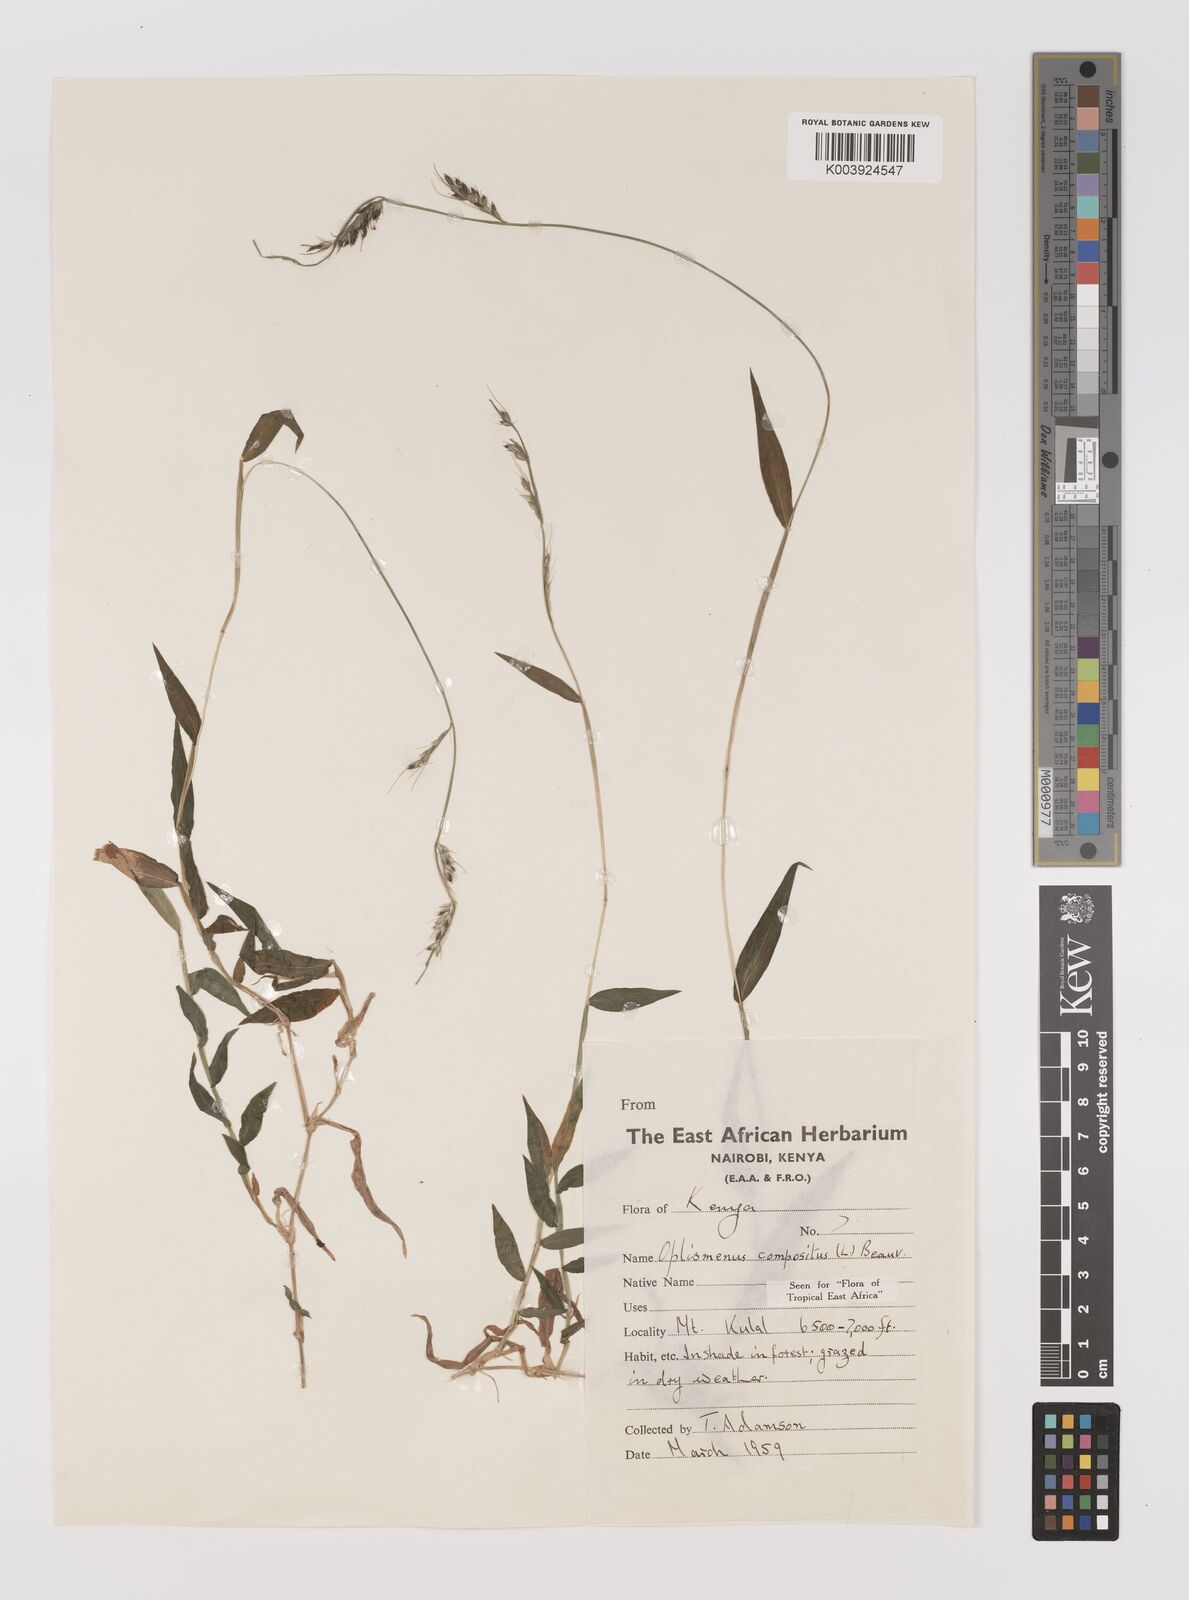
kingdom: Plantae
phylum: Tracheophyta
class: Liliopsida
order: Poales
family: Poaceae
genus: Oplismenus
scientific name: Oplismenus hirtellus
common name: Basketgrass
